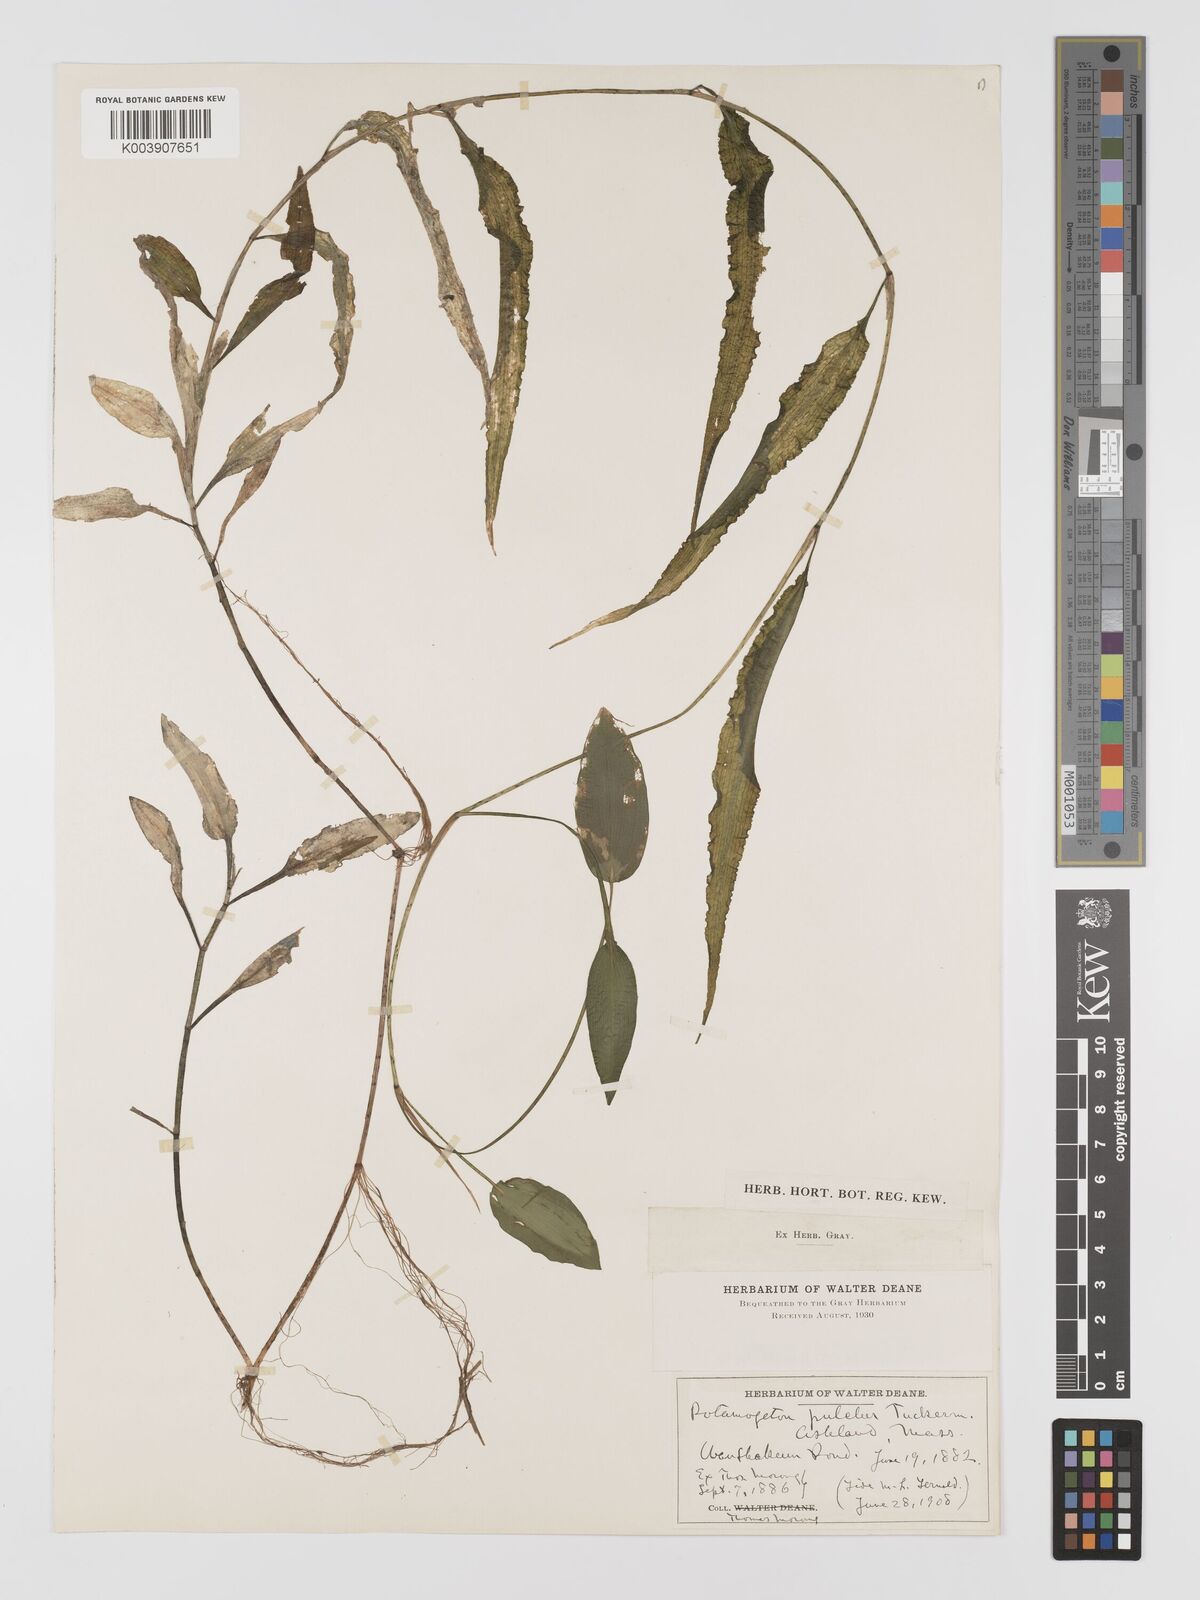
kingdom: Plantae
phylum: Tracheophyta
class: Liliopsida
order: Alismatales
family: Potamogetonaceae
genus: Potamogeton
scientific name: Potamogeton pulcher
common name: Heart-leaved pondweed
